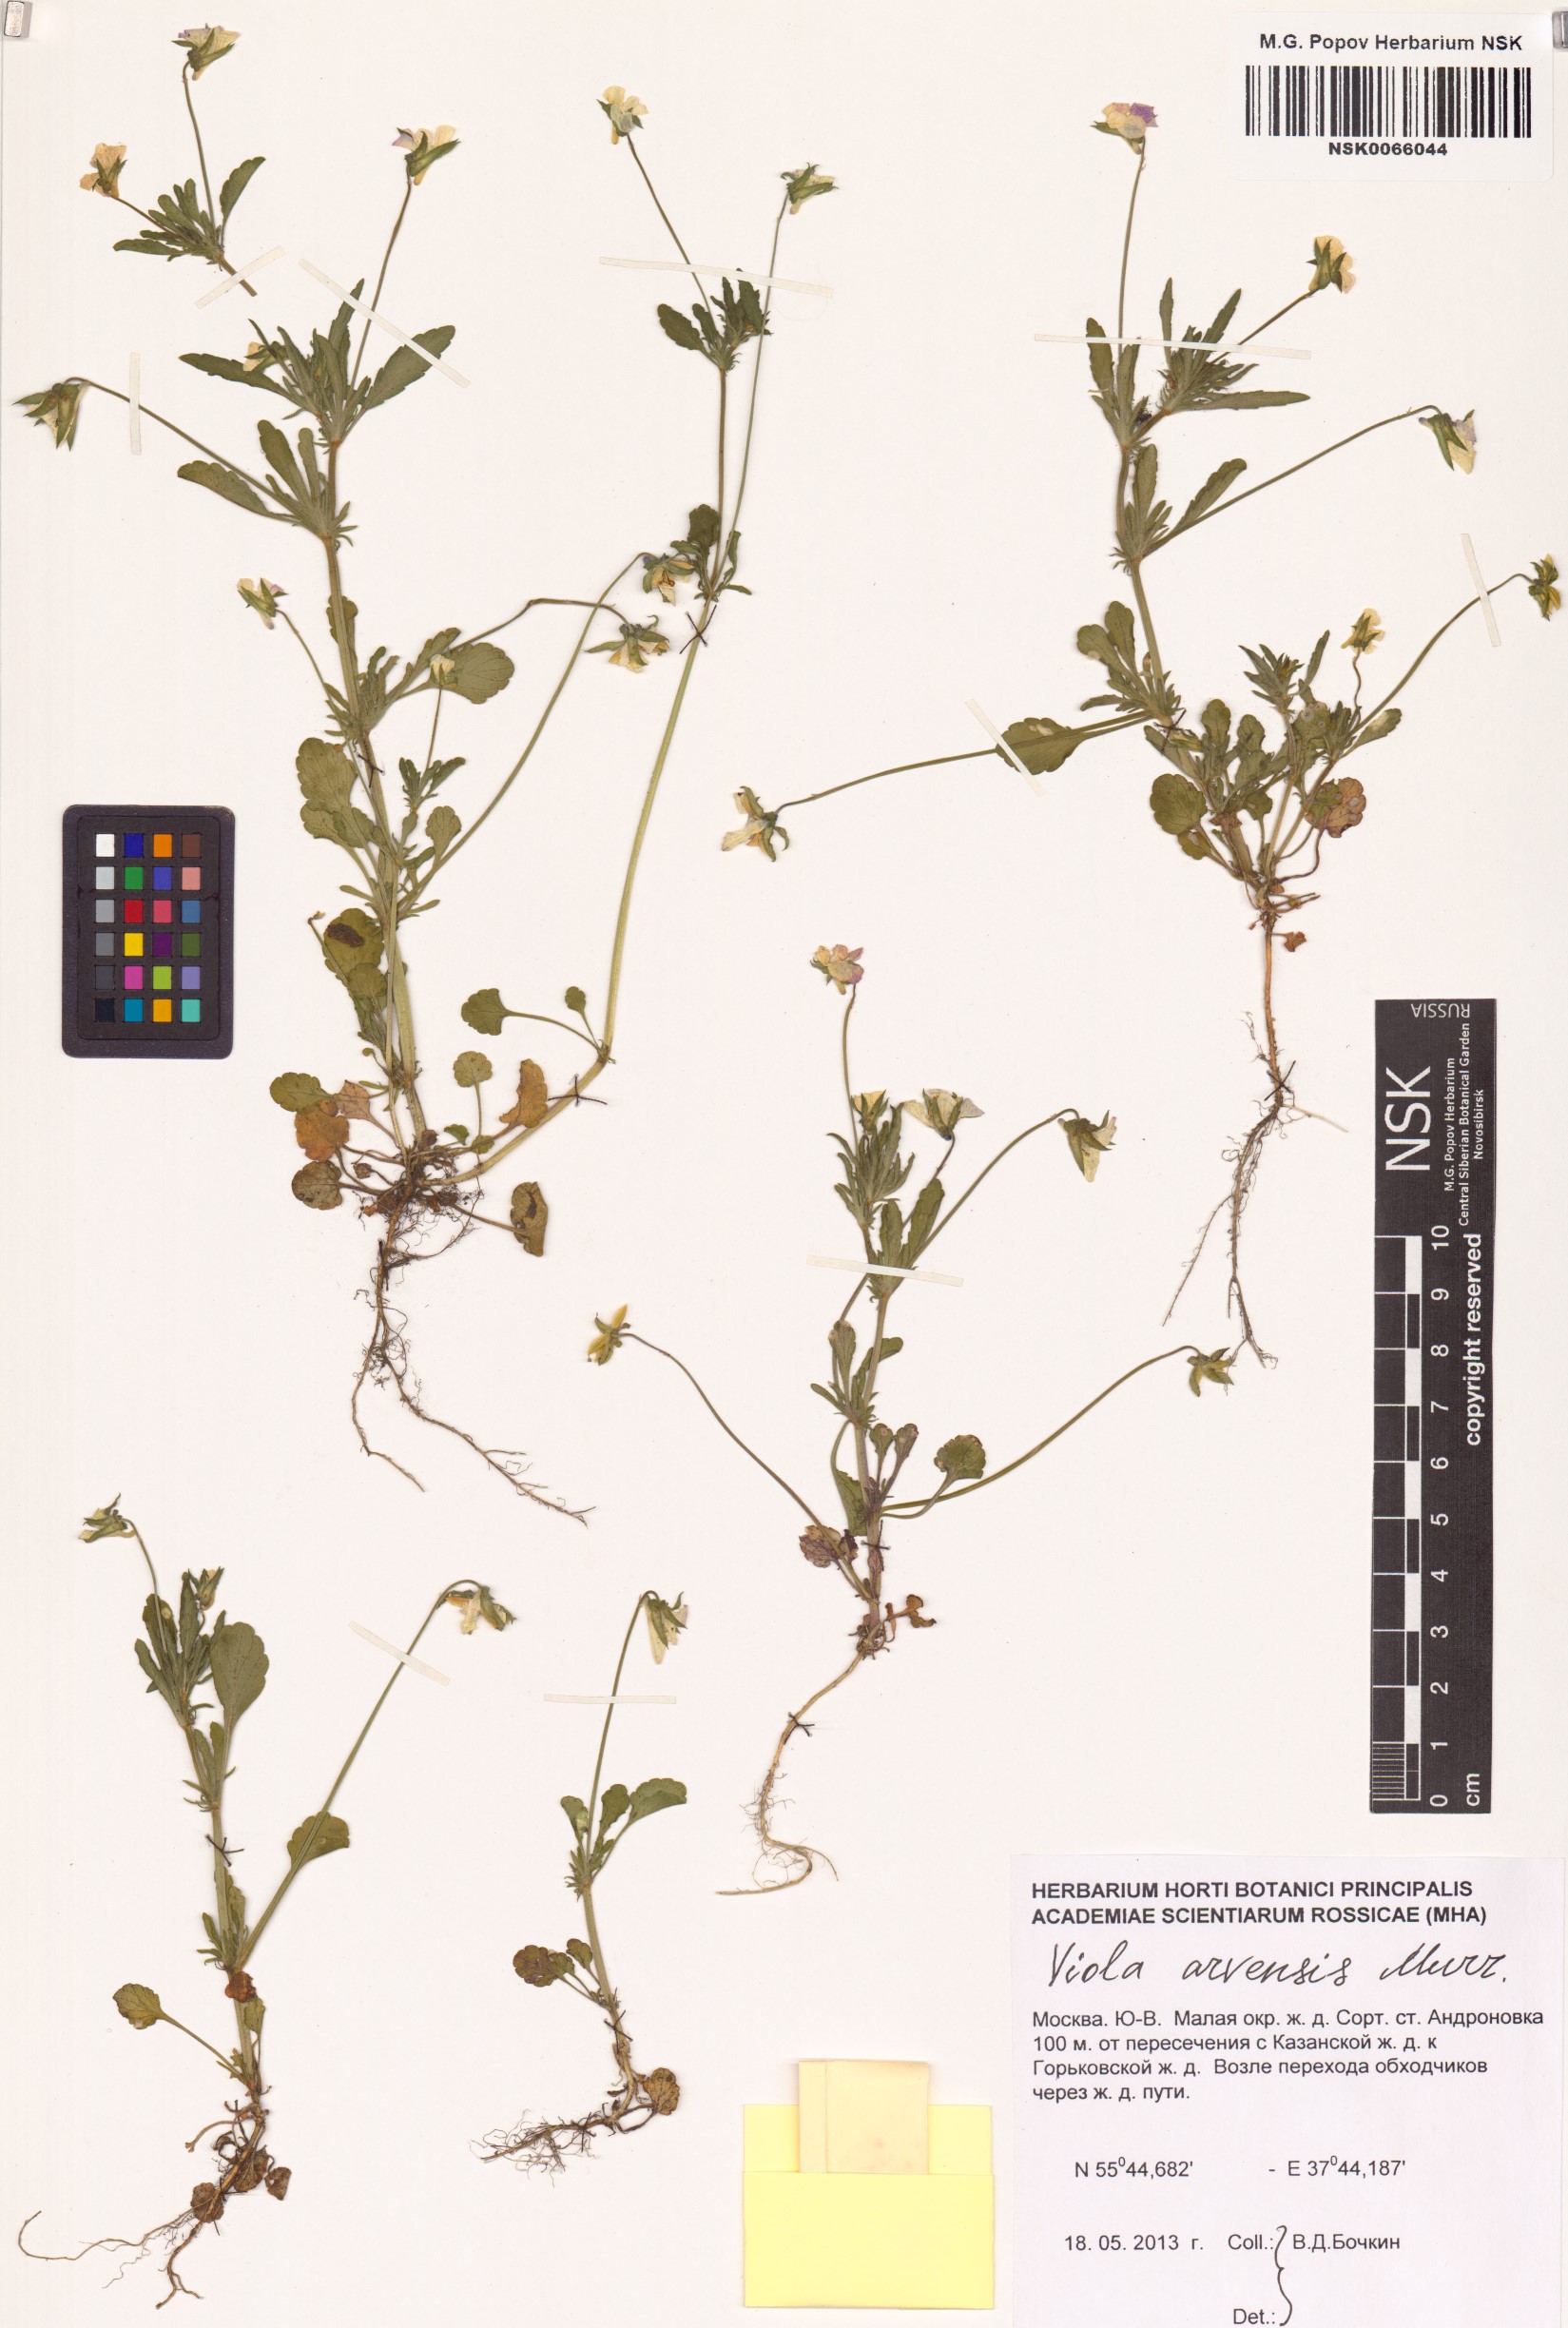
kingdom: Plantae
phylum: Tracheophyta
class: Magnoliopsida
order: Malpighiales
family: Violaceae
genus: Viola
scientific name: Viola arvensis
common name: Field pansy
